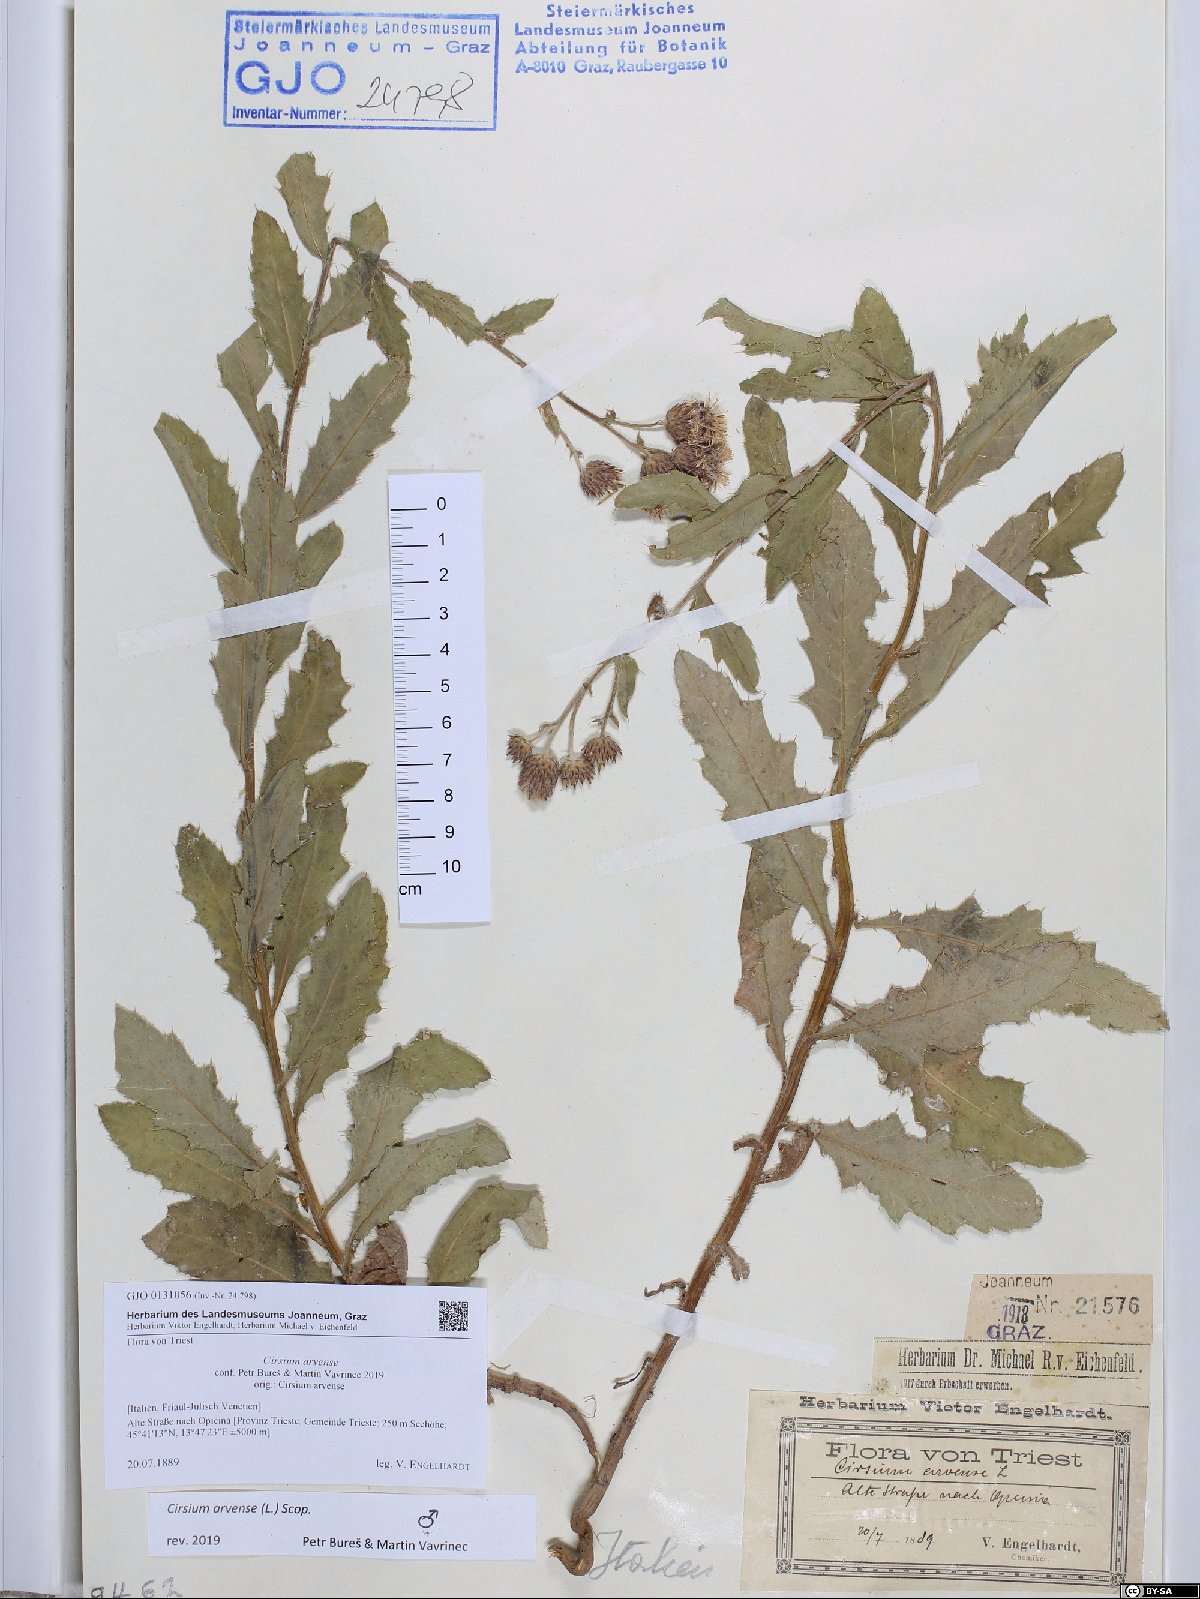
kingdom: Plantae
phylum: Tracheophyta
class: Magnoliopsida
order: Asterales
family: Asteraceae
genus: Cirsium
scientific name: Cirsium arvense
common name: Creeping thistle
